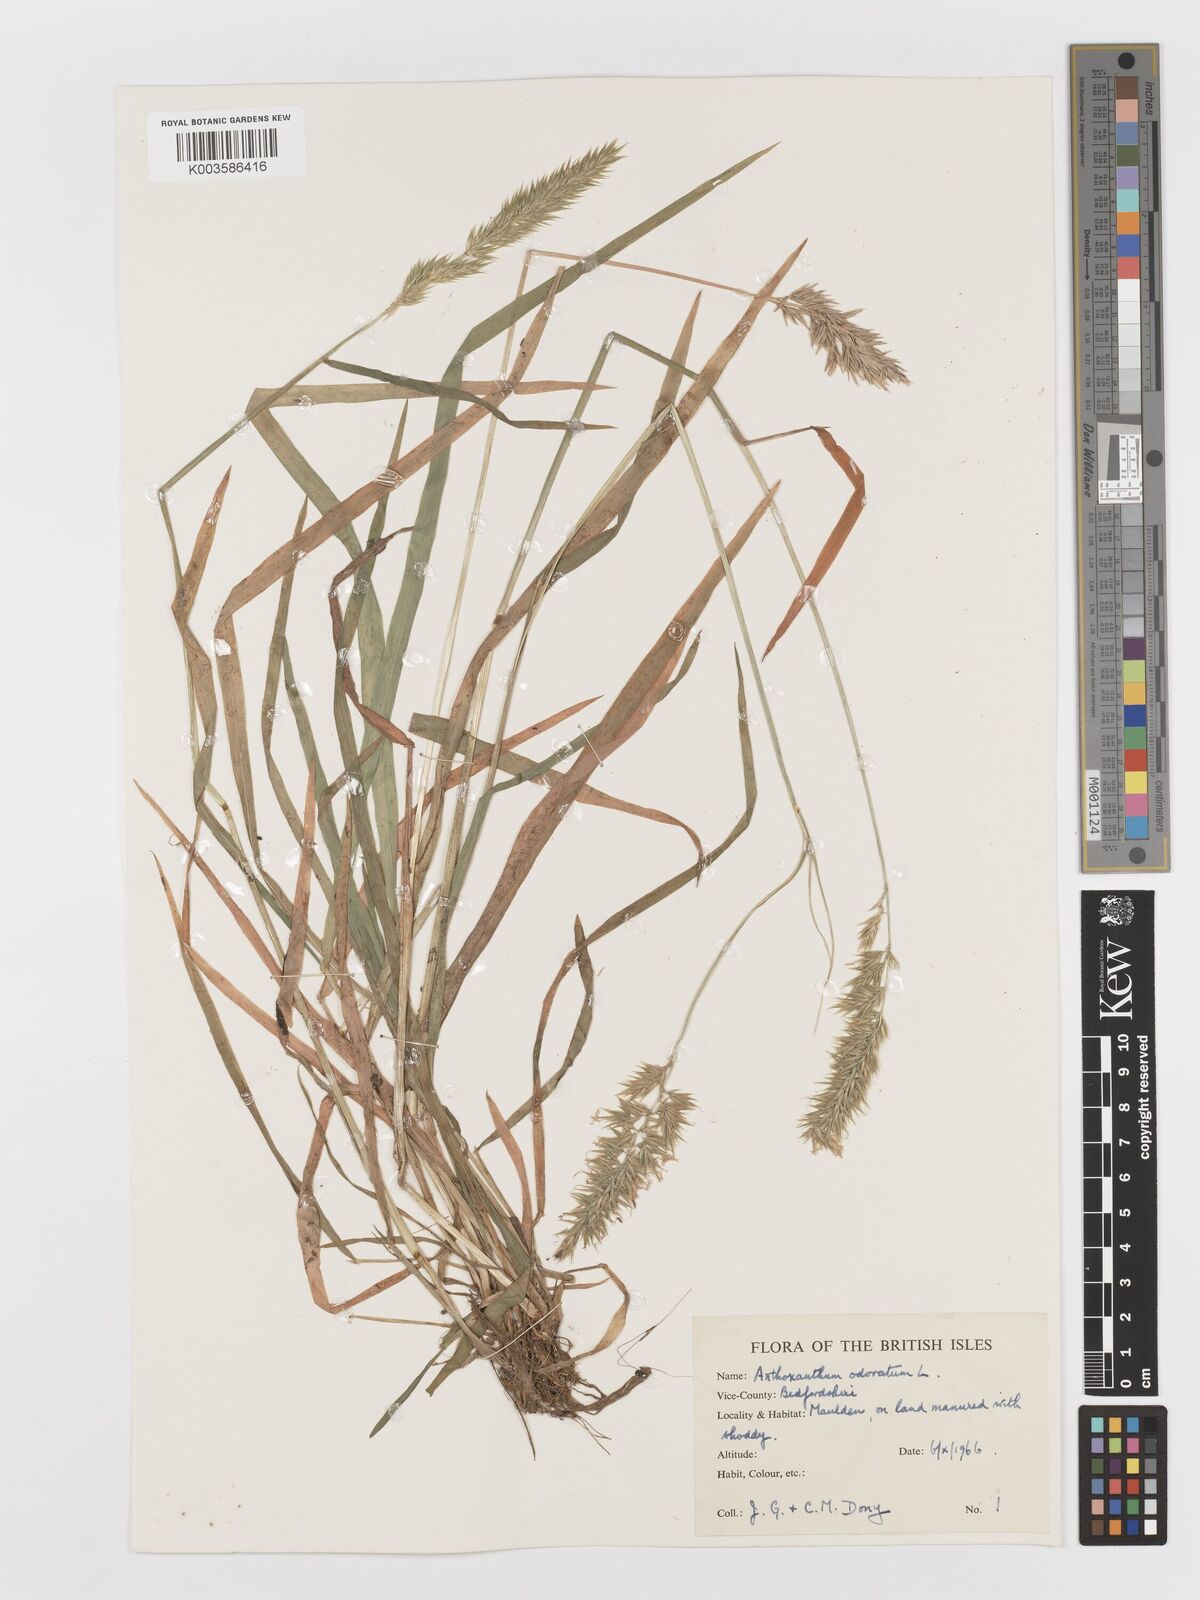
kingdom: Plantae
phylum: Tracheophyta
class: Liliopsida
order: Poales
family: Poaceae
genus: Anthoxanthum
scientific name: Anthoxanthum odoratum
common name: Sweet vernalgrass
